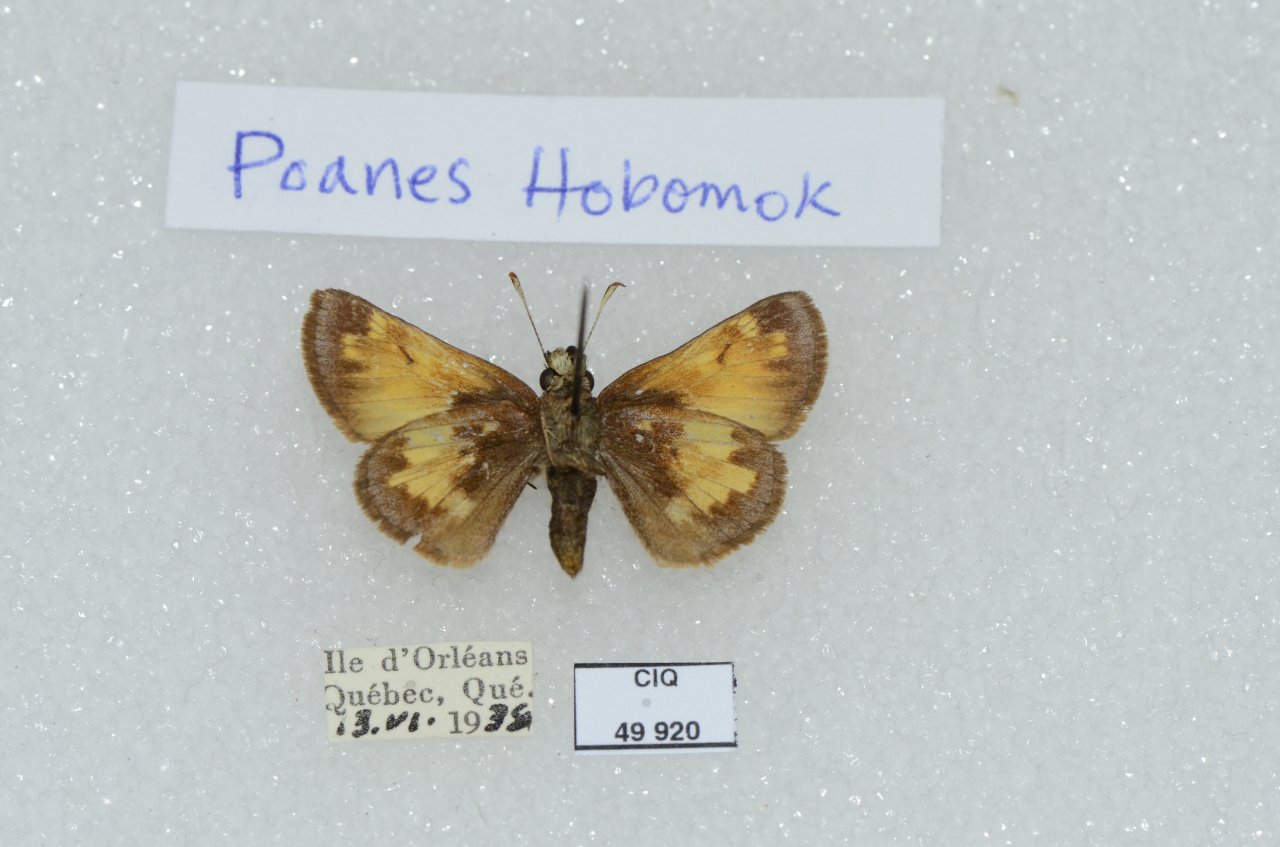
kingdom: Animalia
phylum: Arthropoda
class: Insecta
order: Lepidoptera
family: Hesperiidae
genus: Lon
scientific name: Lon hobomok
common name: Hobomok Skipper
